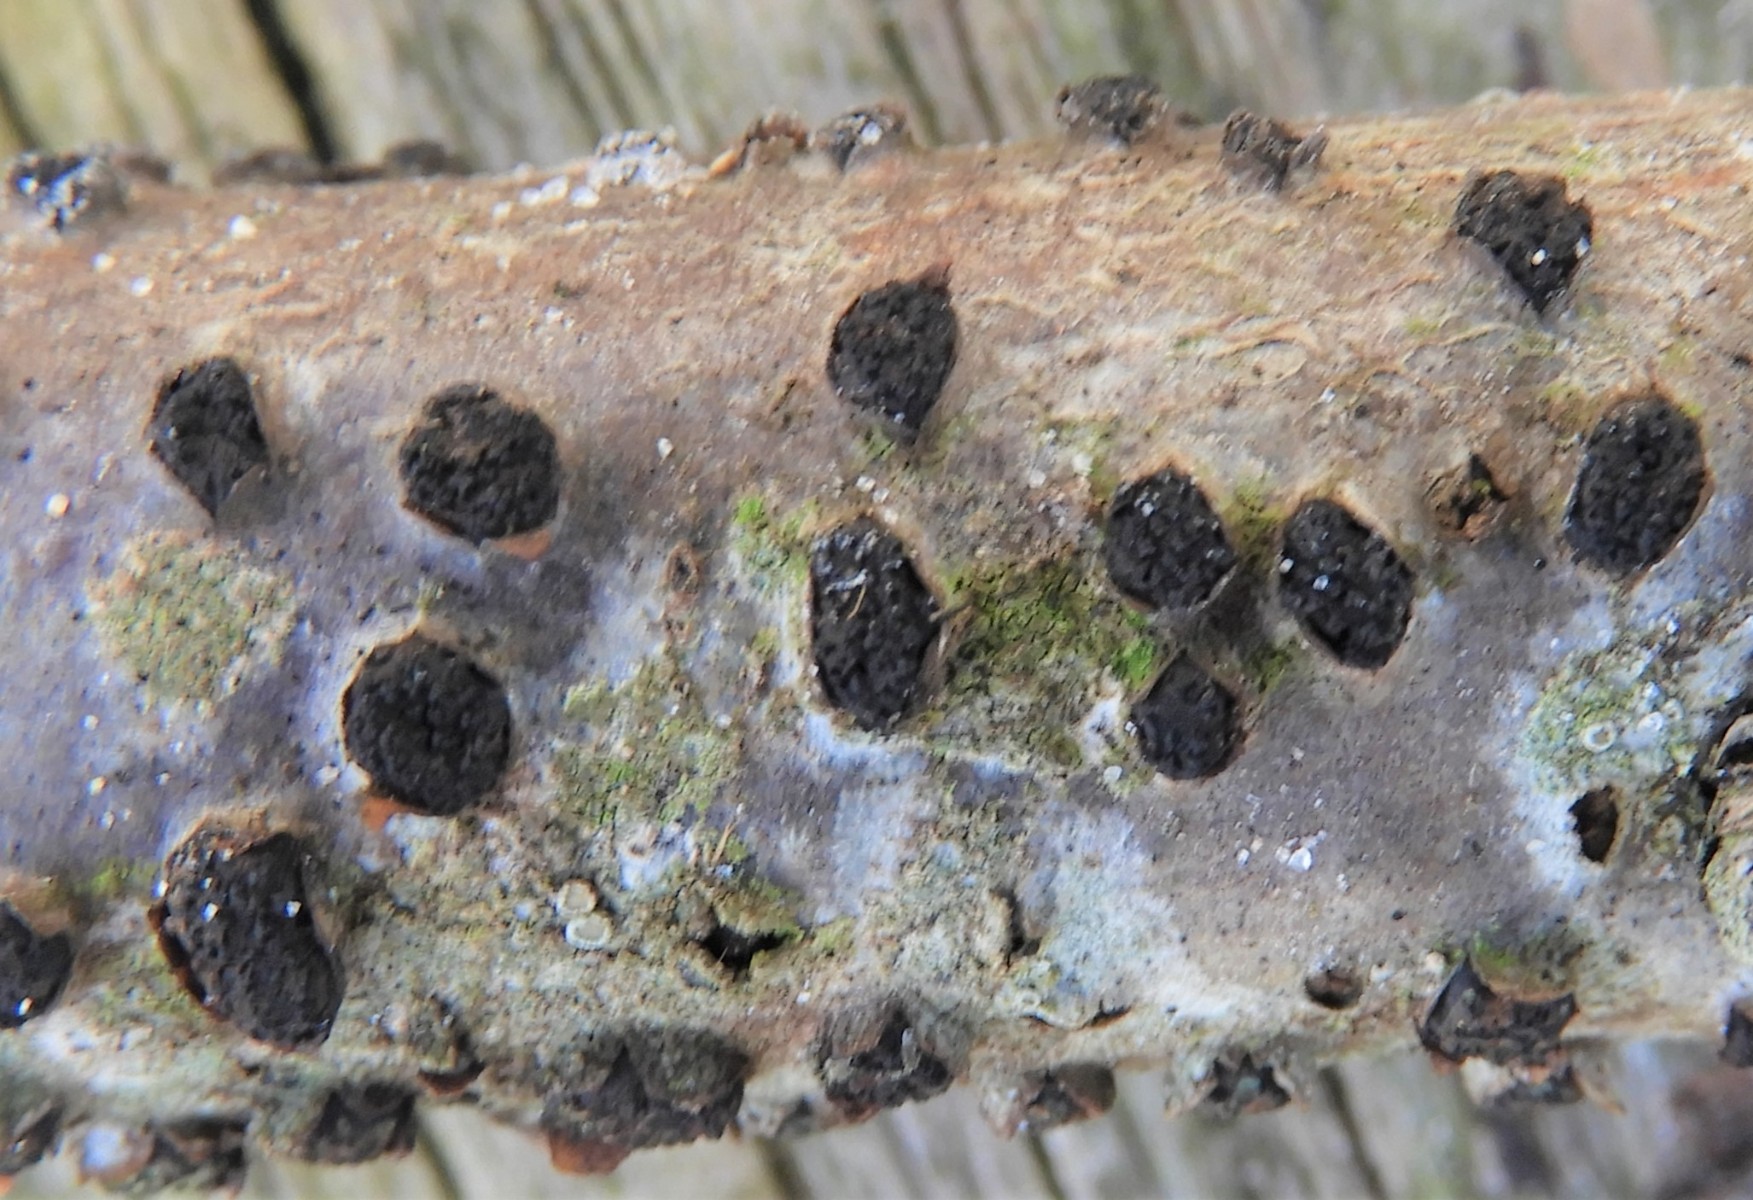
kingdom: Fungi
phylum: Ascomycota
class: Sordariomycetes
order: Xylariales
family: Diatrypaceae
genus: Diatrypella
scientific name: Diatrypella quercina
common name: ege-kulskorpe
